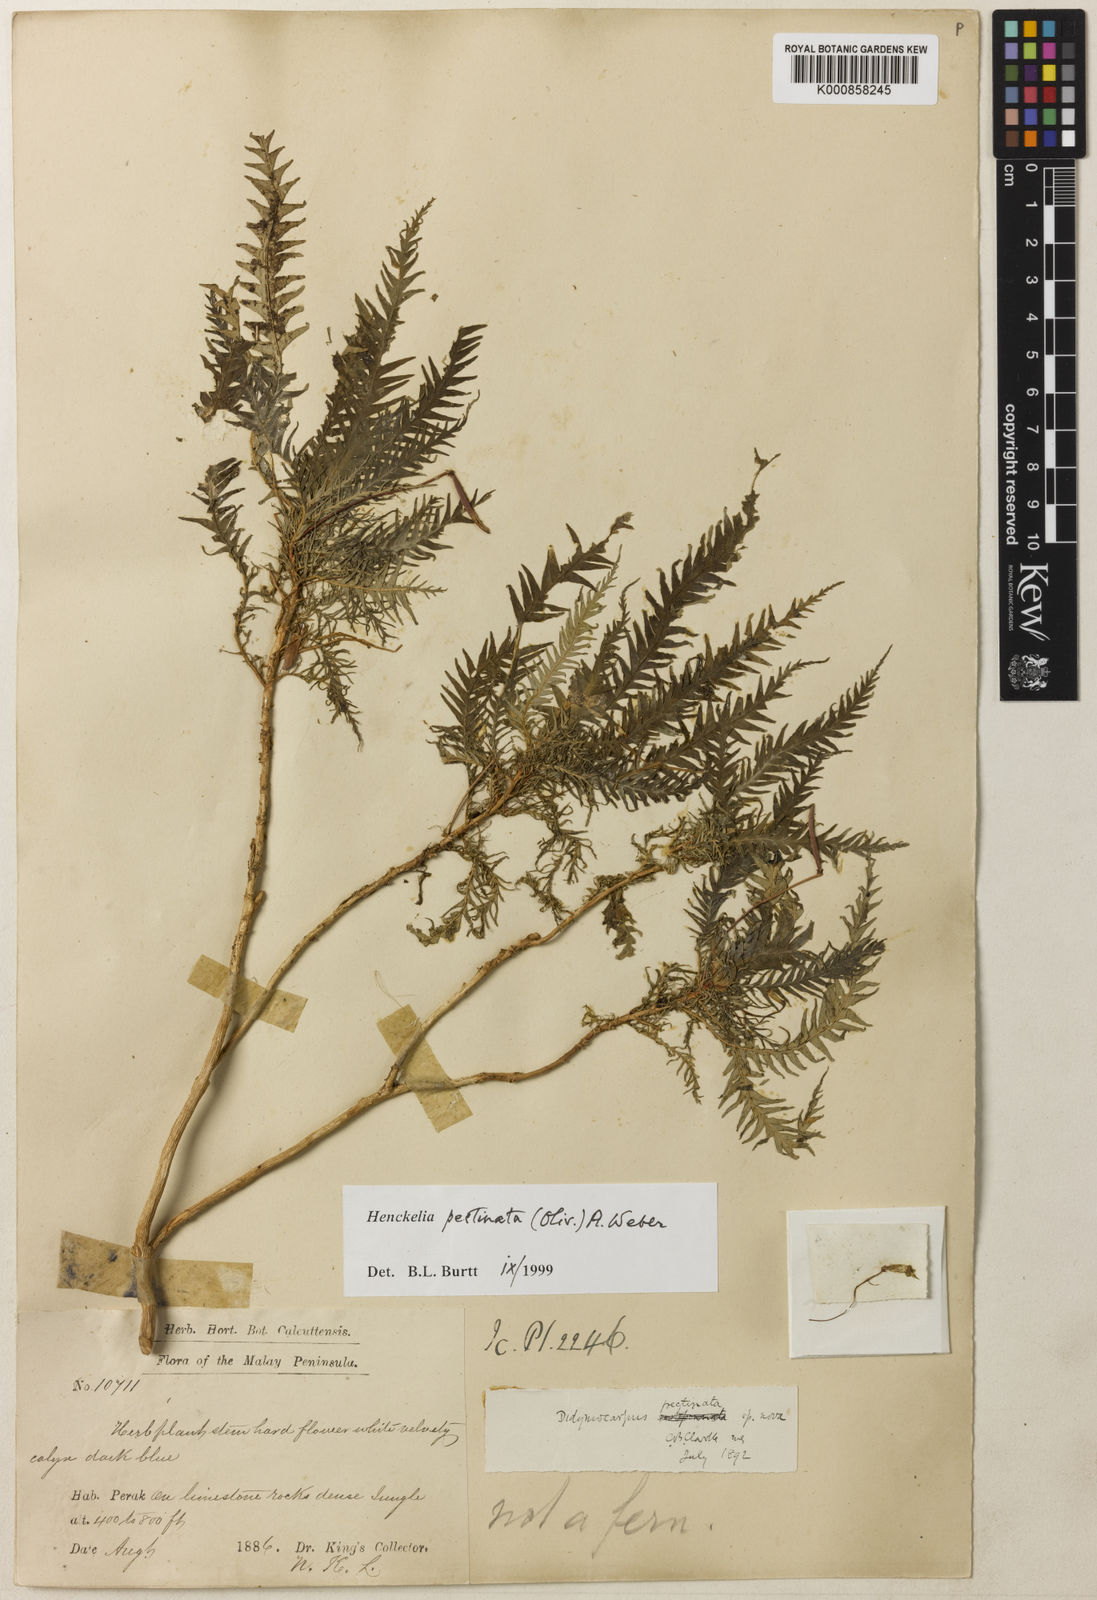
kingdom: Plantae
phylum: Tracheophyta
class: Magnoliopsida
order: Lamiales
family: Gesneriaceae
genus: Codonoboea
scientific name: Codonoboea pectinata
